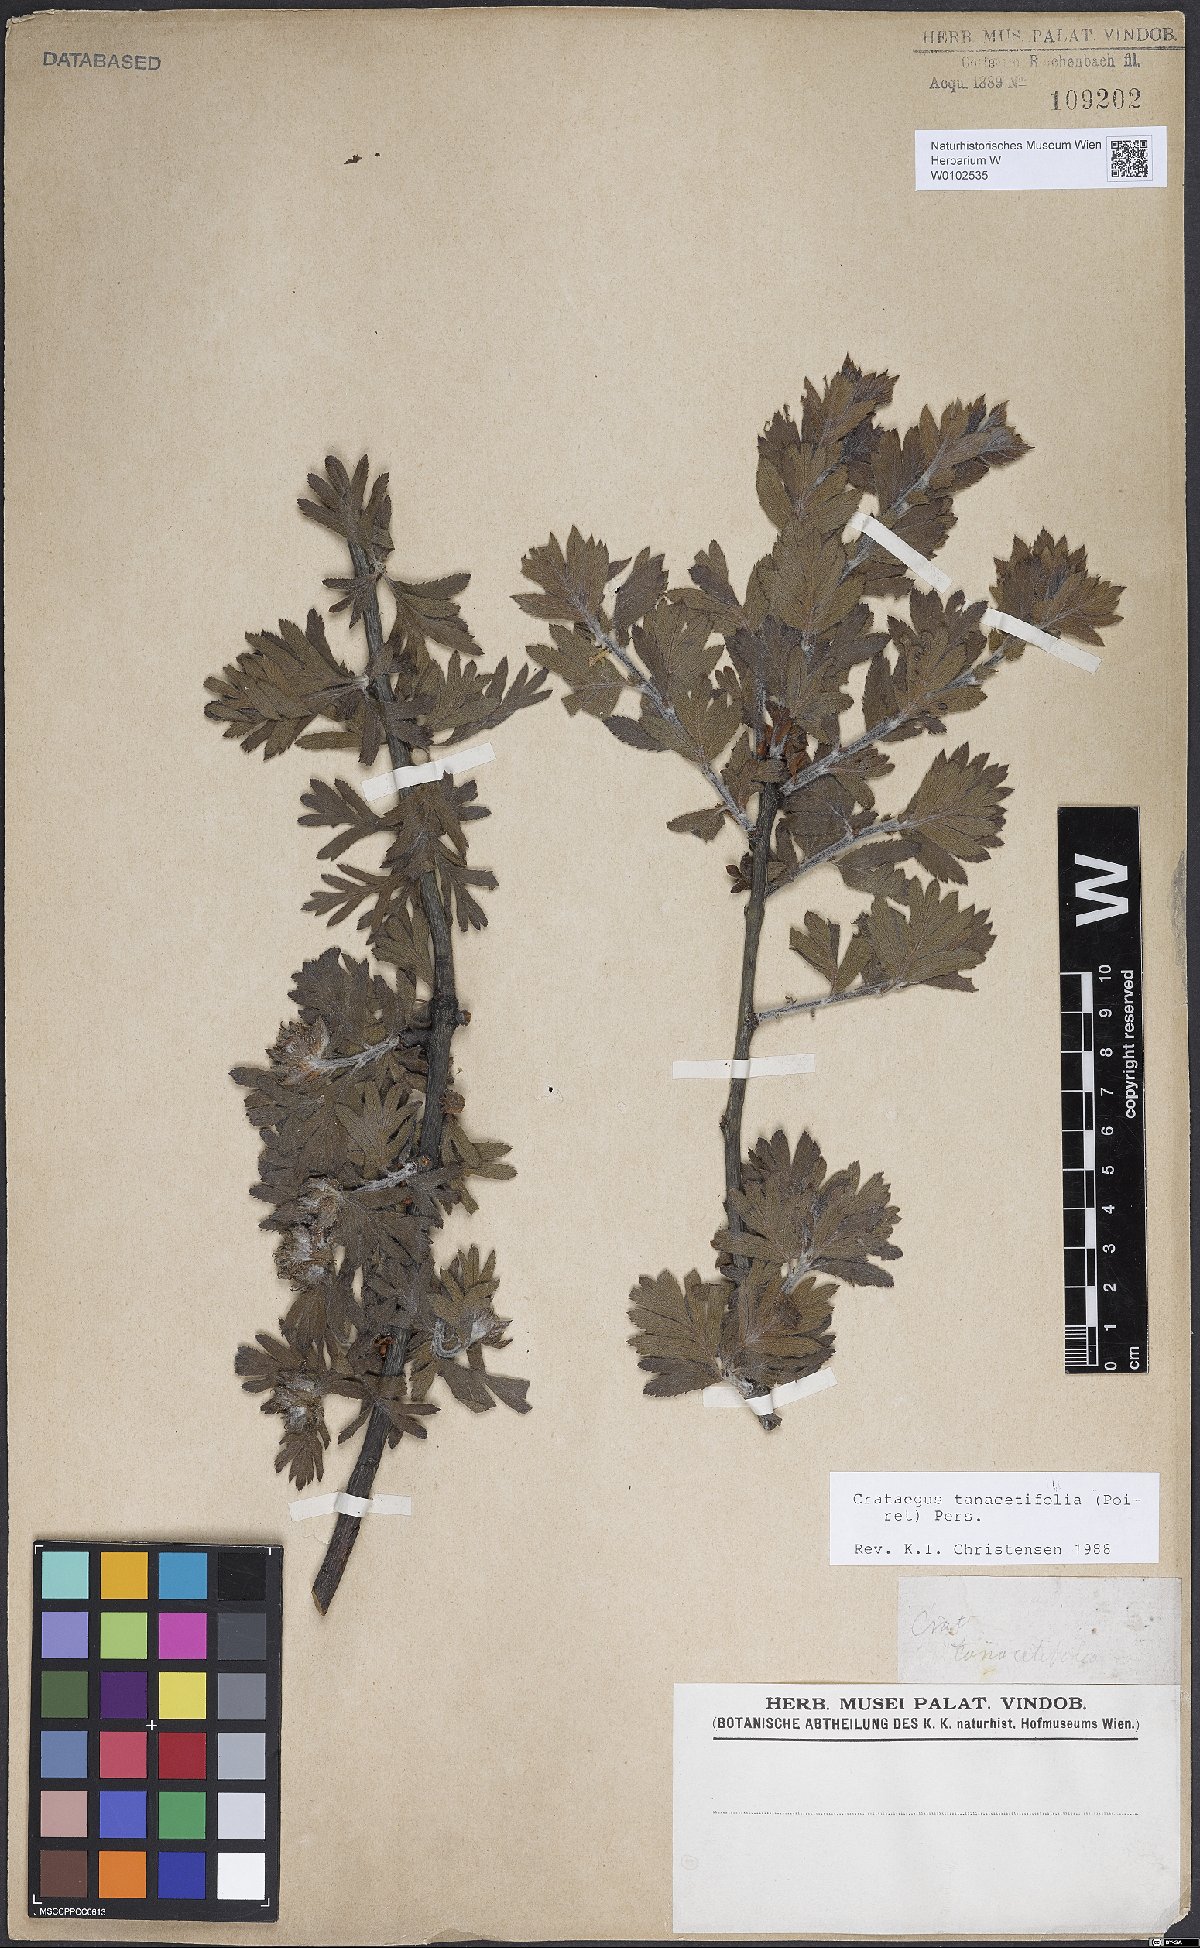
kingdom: Plantae
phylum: Tracheophyta
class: Magnoliopsida
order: Rosales
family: Rosaceae
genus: Crataegus
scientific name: Crataegus tanacetifolia
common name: Tansy-leaved thorn
